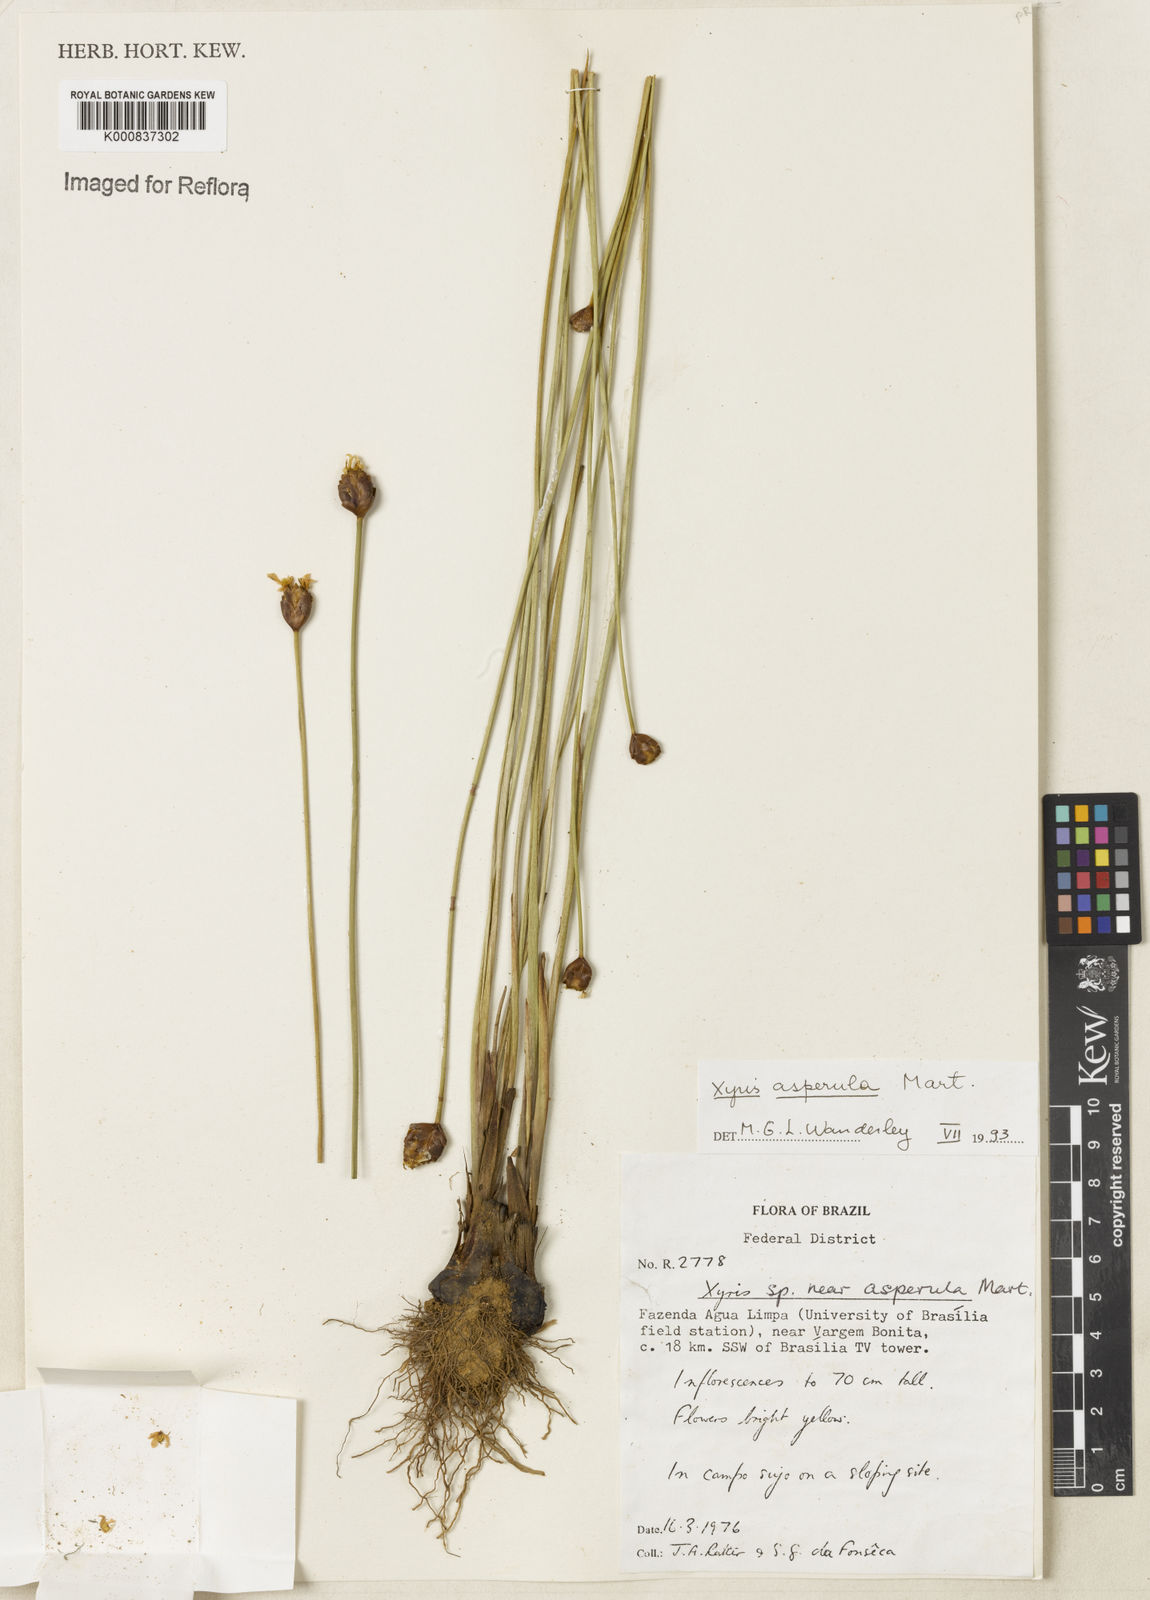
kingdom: Plantae
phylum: Tracheophyta
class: Liliopsida
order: Poales
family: Xyridaceae
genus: Xyris
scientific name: Xyris asperula
